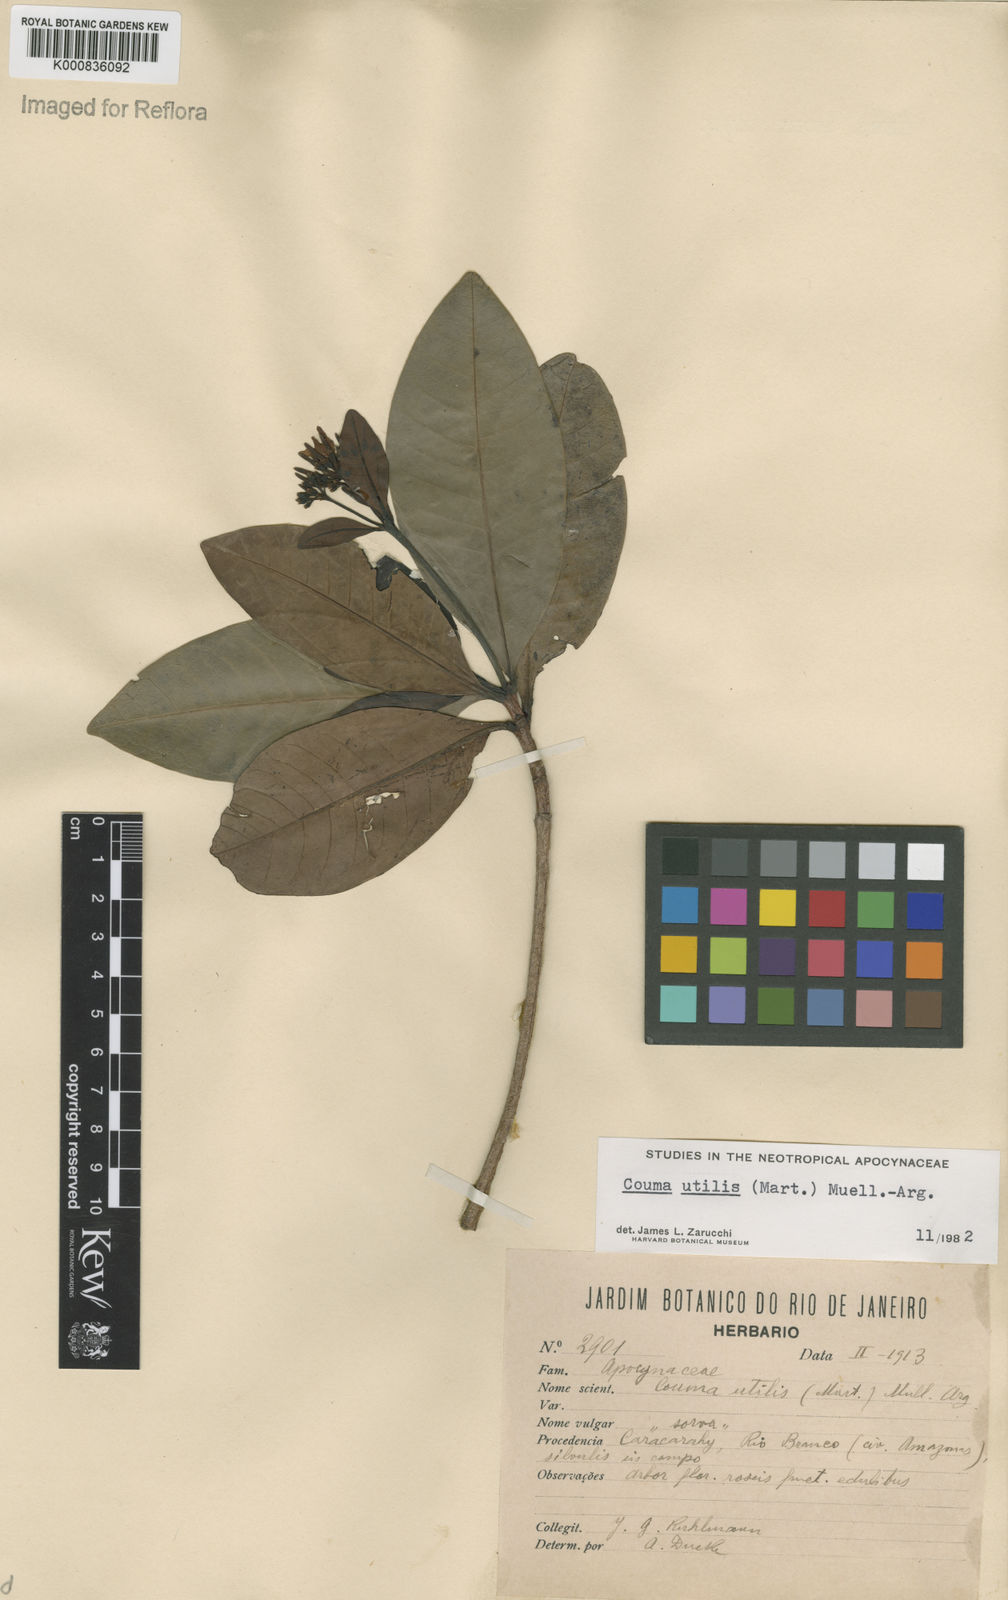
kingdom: Plantae
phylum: Tracheophyta
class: Magnoliopsida
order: Gentianales
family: Apocynaceae
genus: Couma
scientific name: Couma
